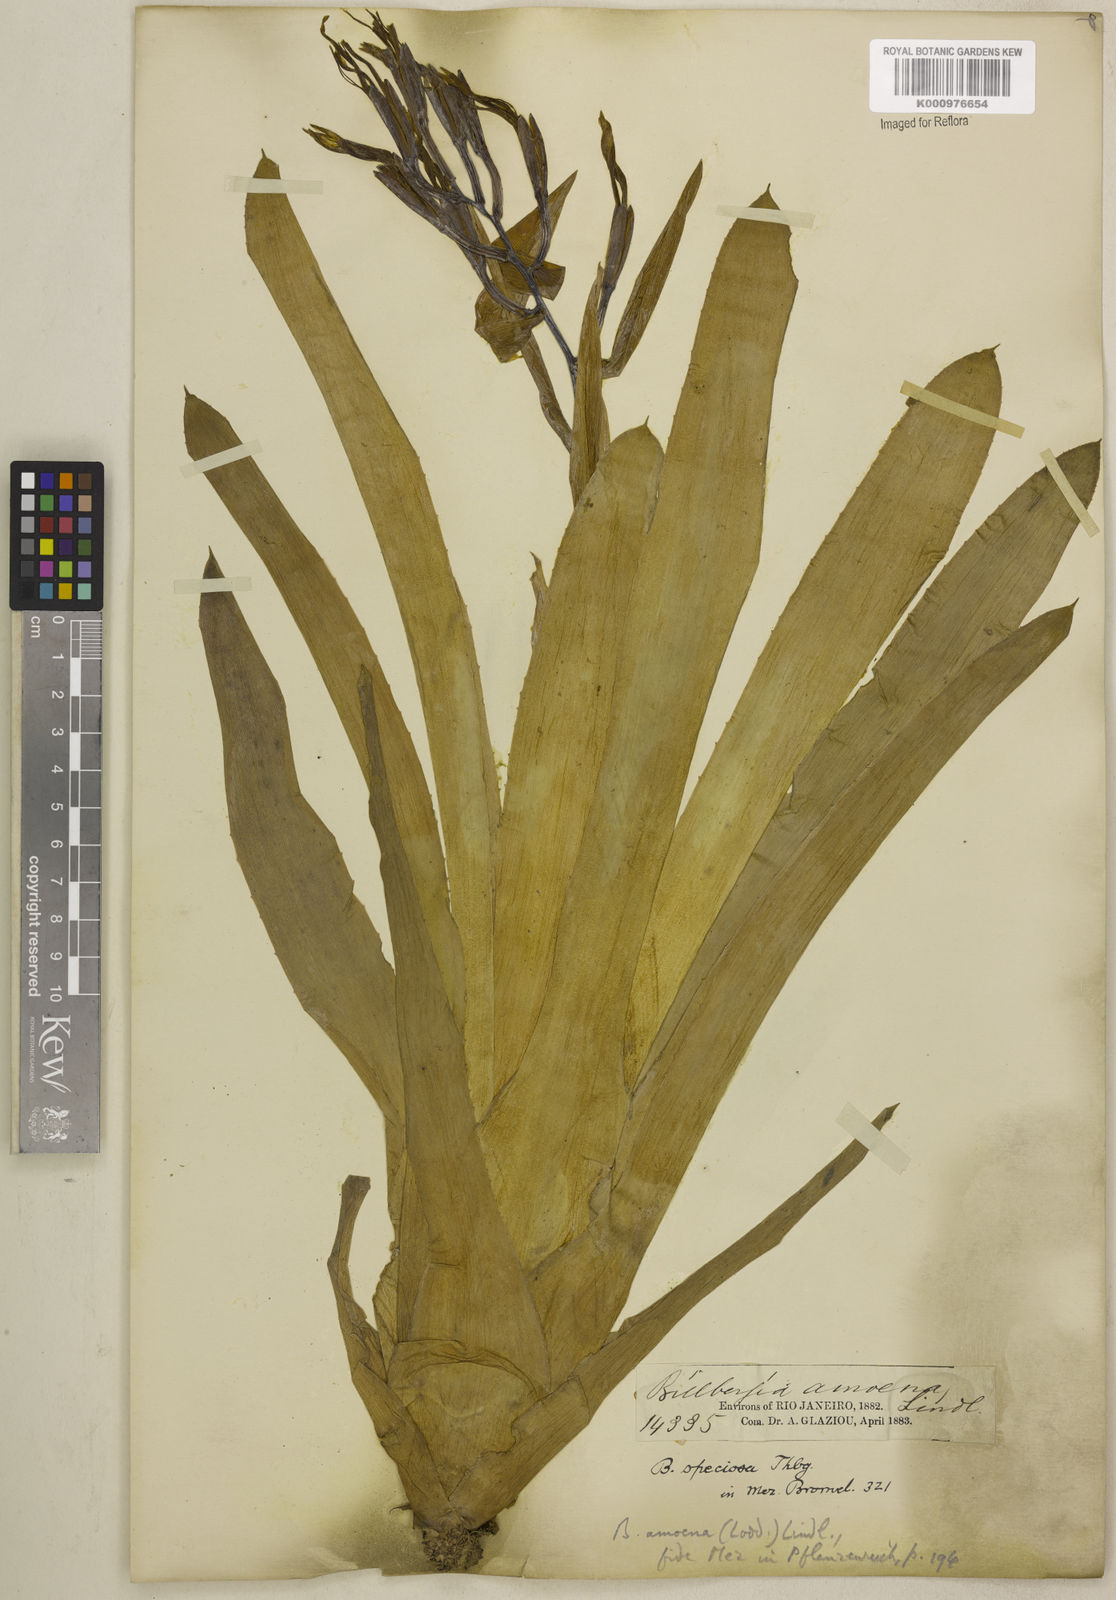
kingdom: Plantae
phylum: Tracheophyta
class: Liliopsida
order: Poales
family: Bromeliaceae
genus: Billbergia
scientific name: Billbergia amoena
